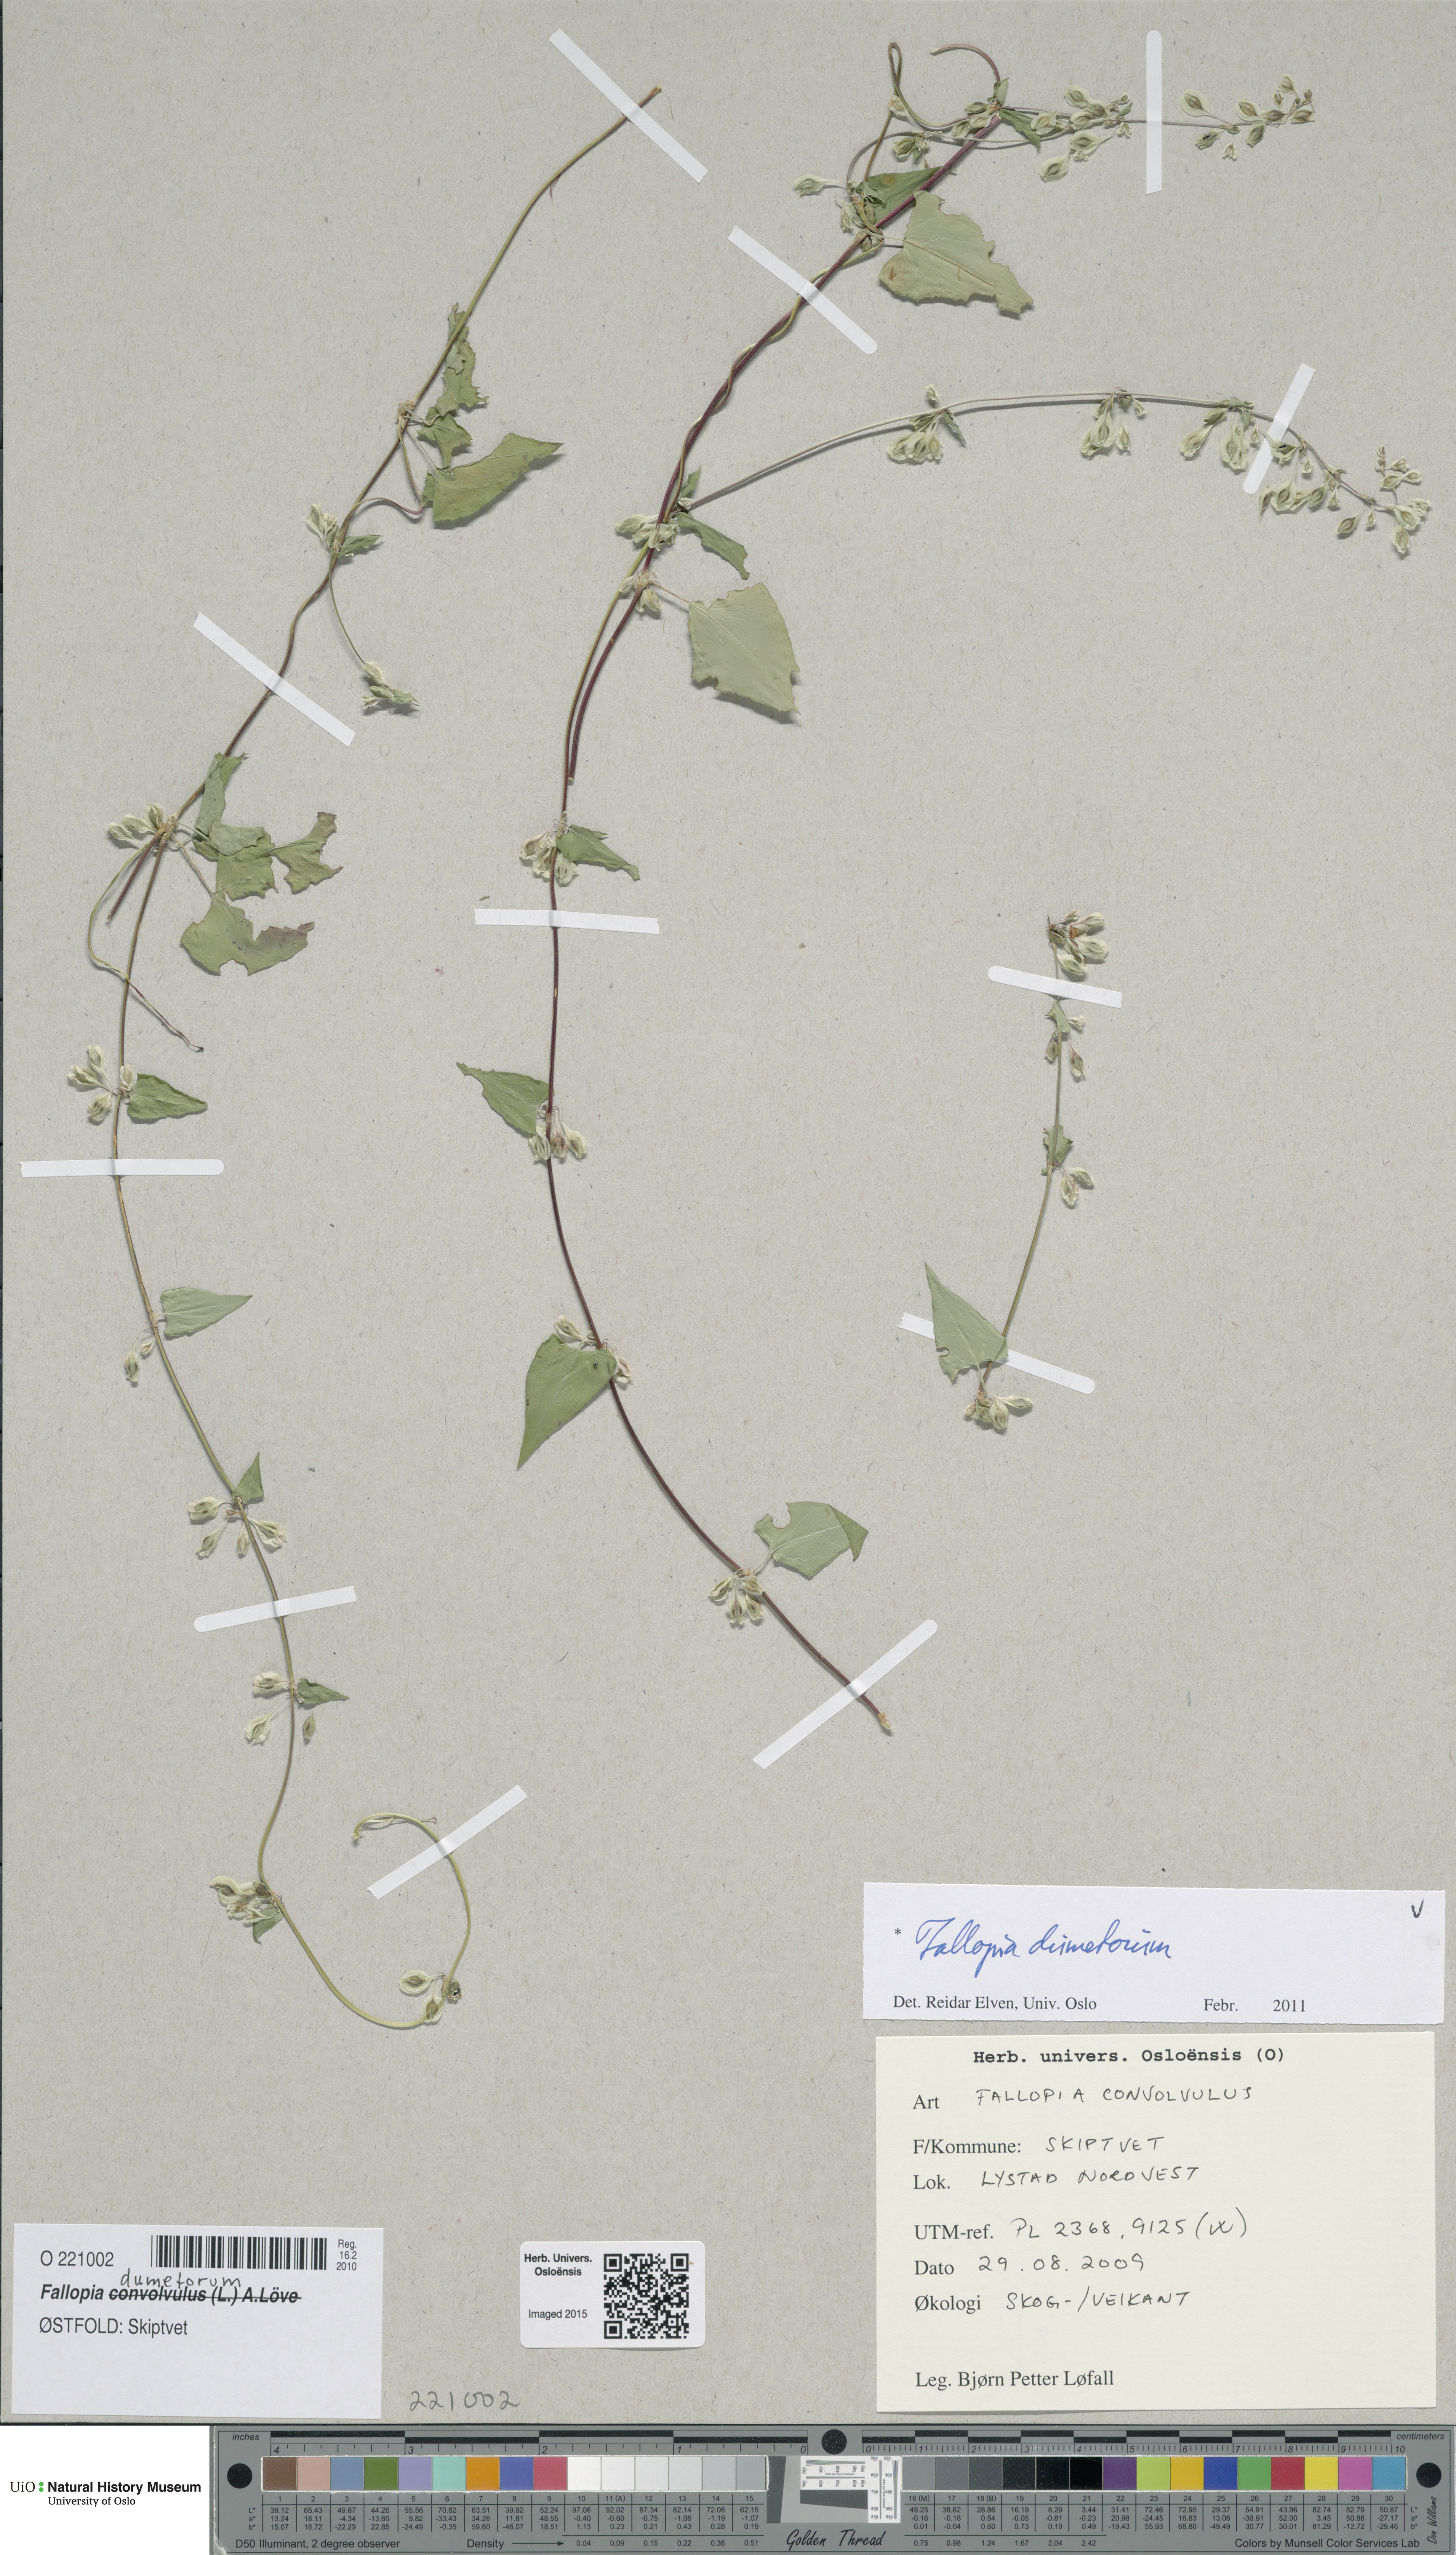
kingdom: Plantae
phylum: Tracheophyta
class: Magnoliopsida
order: Caryophyllales
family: Polygonaceae
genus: Fallopia
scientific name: Fallopia dumetorum
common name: Copse-bindweed
